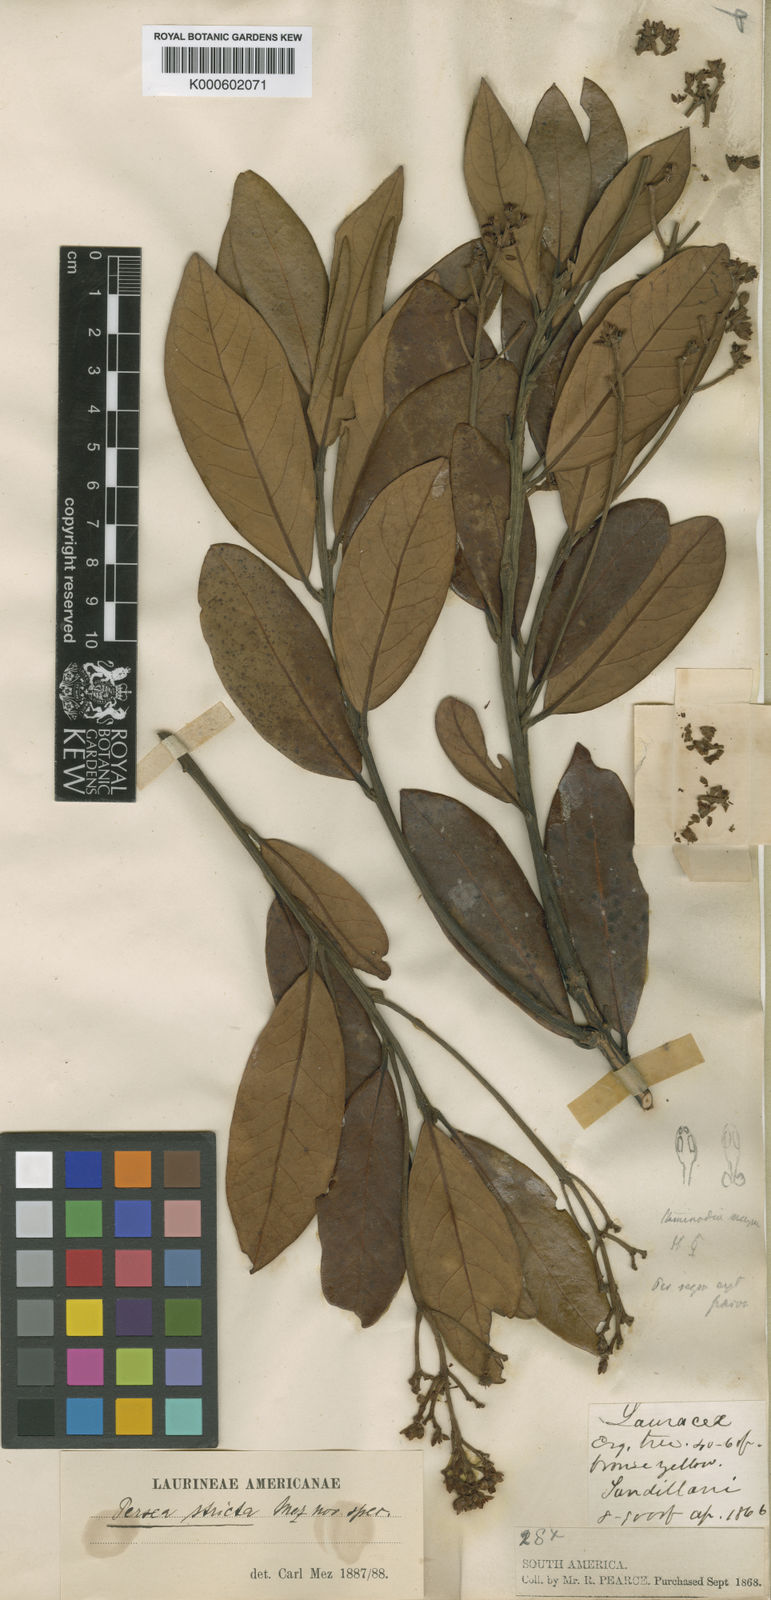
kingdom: Plantae
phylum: Tracheophyta
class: Magnoliopsida
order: Laurales
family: Lauraceae
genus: Persea
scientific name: Persea stricta
